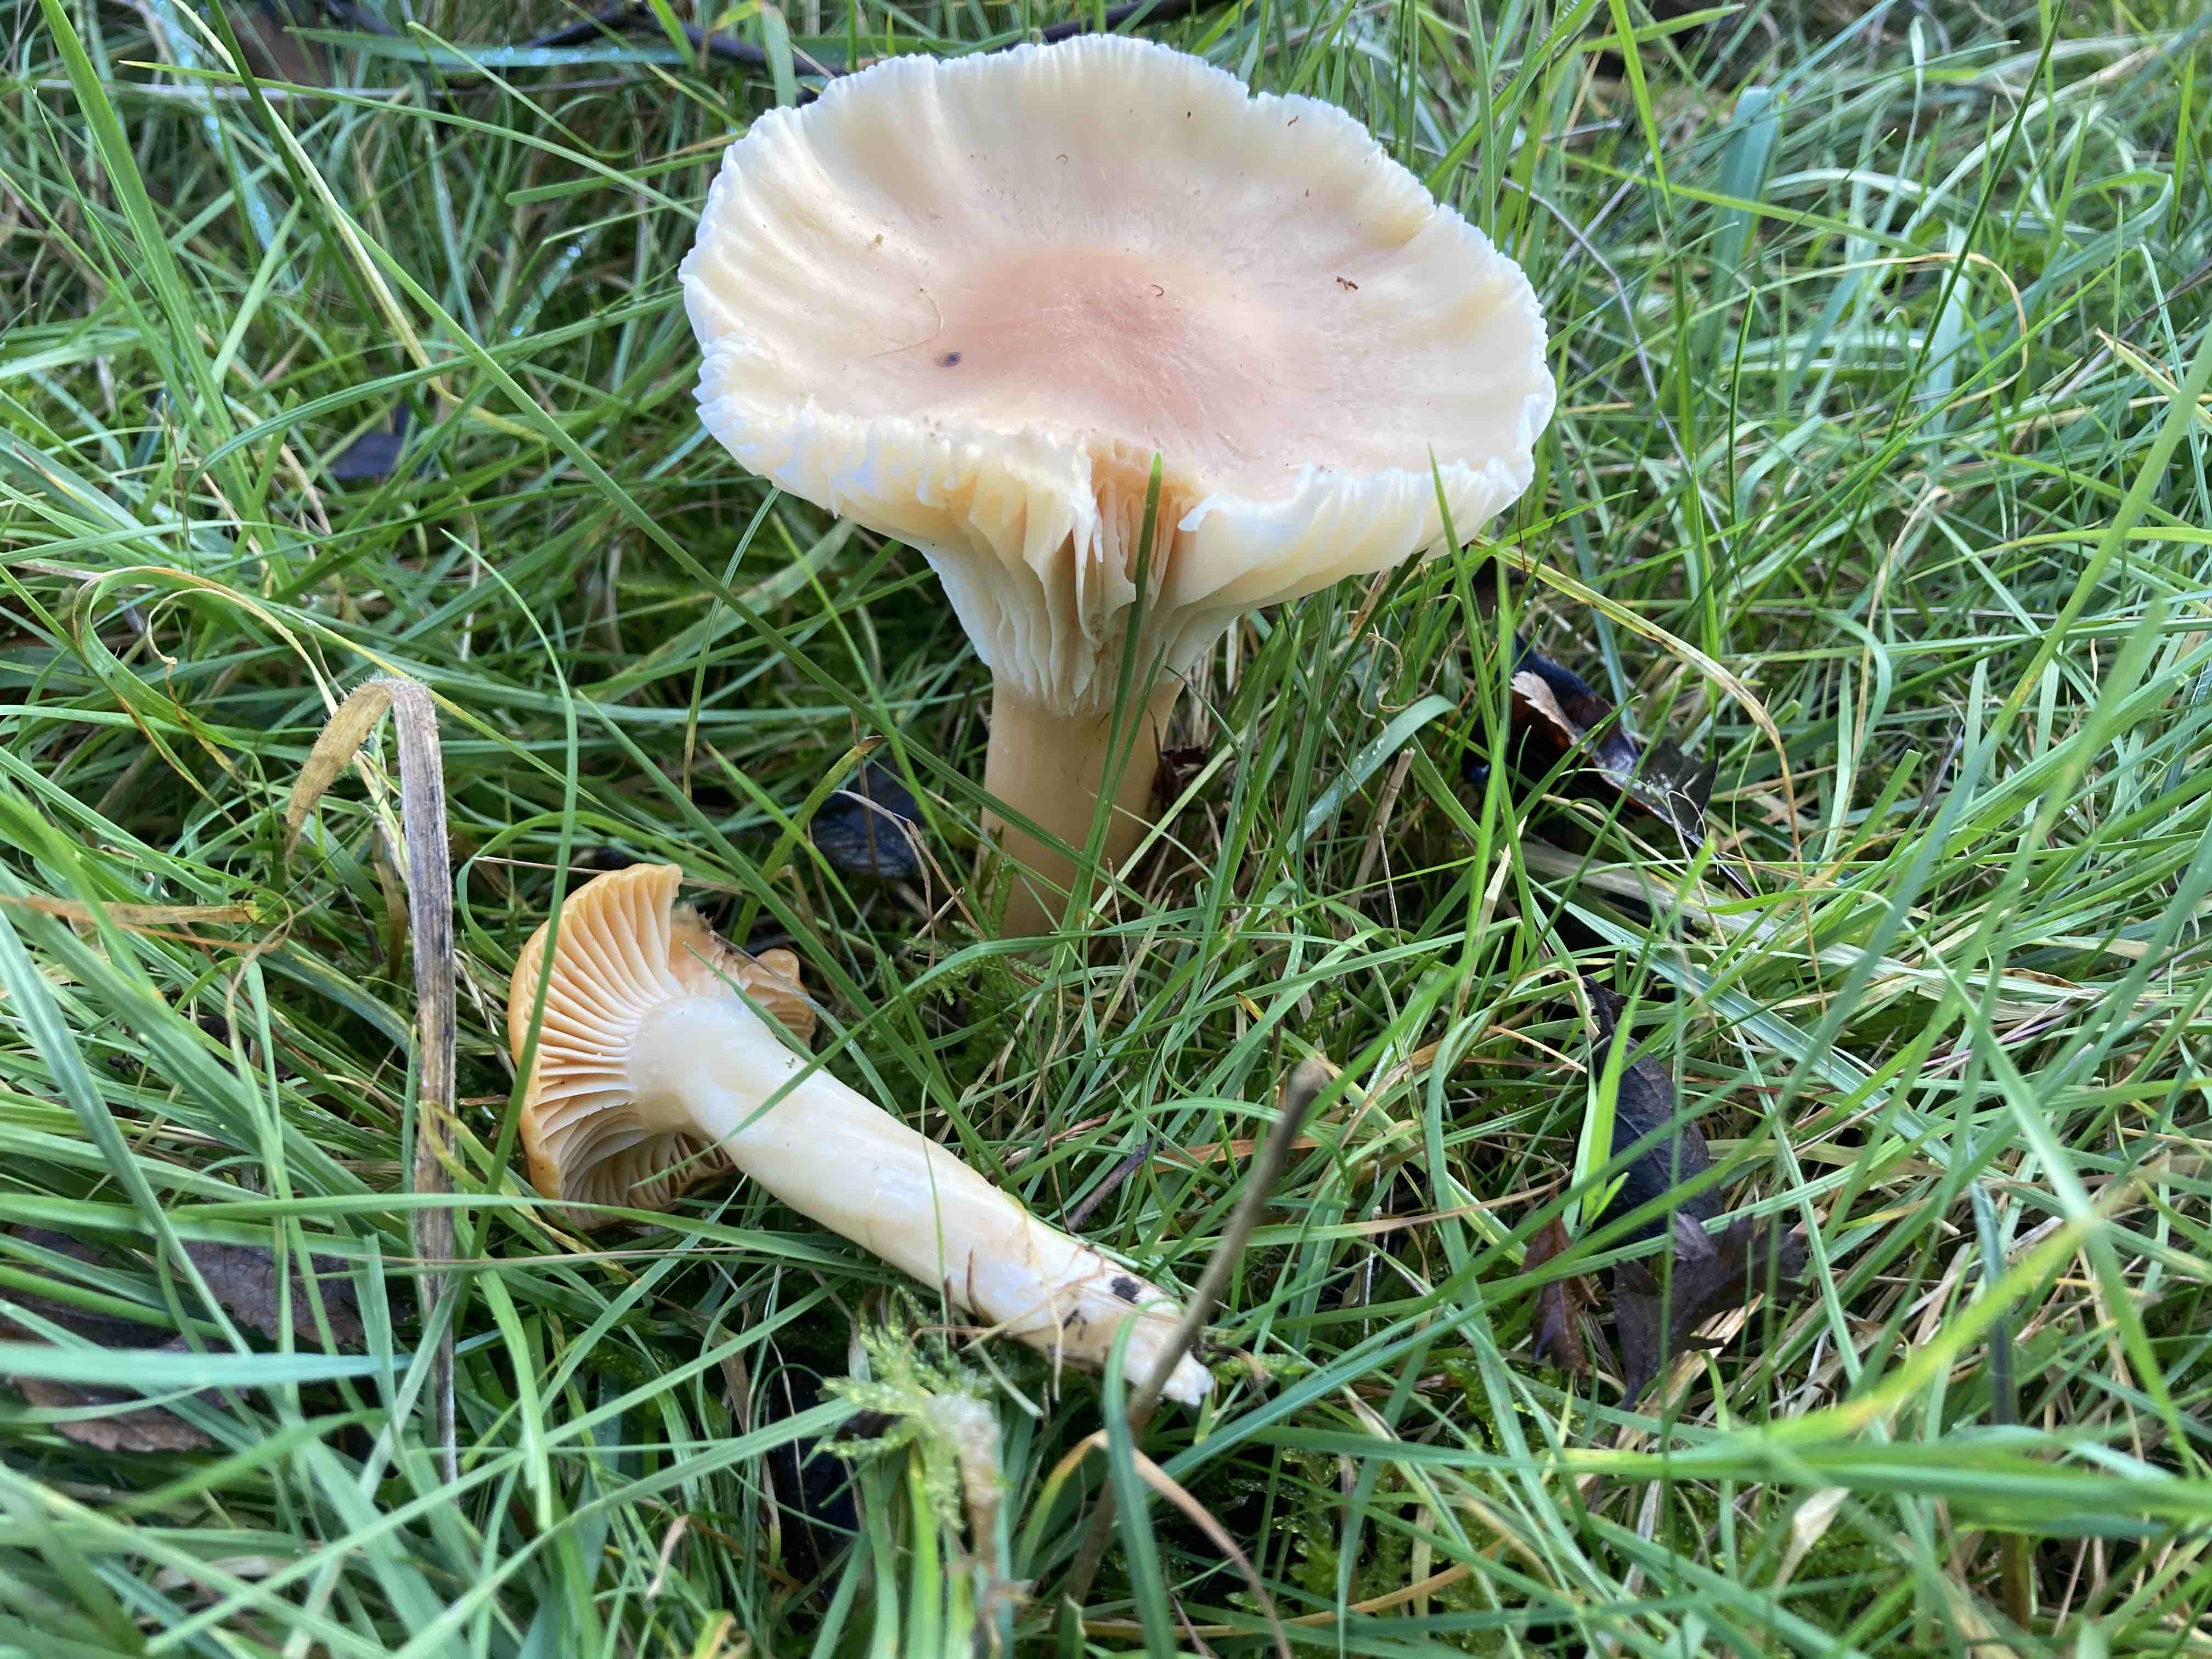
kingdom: Fungi
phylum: Basidiomycota
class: Agaricomycetes
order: Agaricales
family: Hygrophoraceae
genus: Cuphophyllus
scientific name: Cuphophyllus pratensis
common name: eng-vokshat
